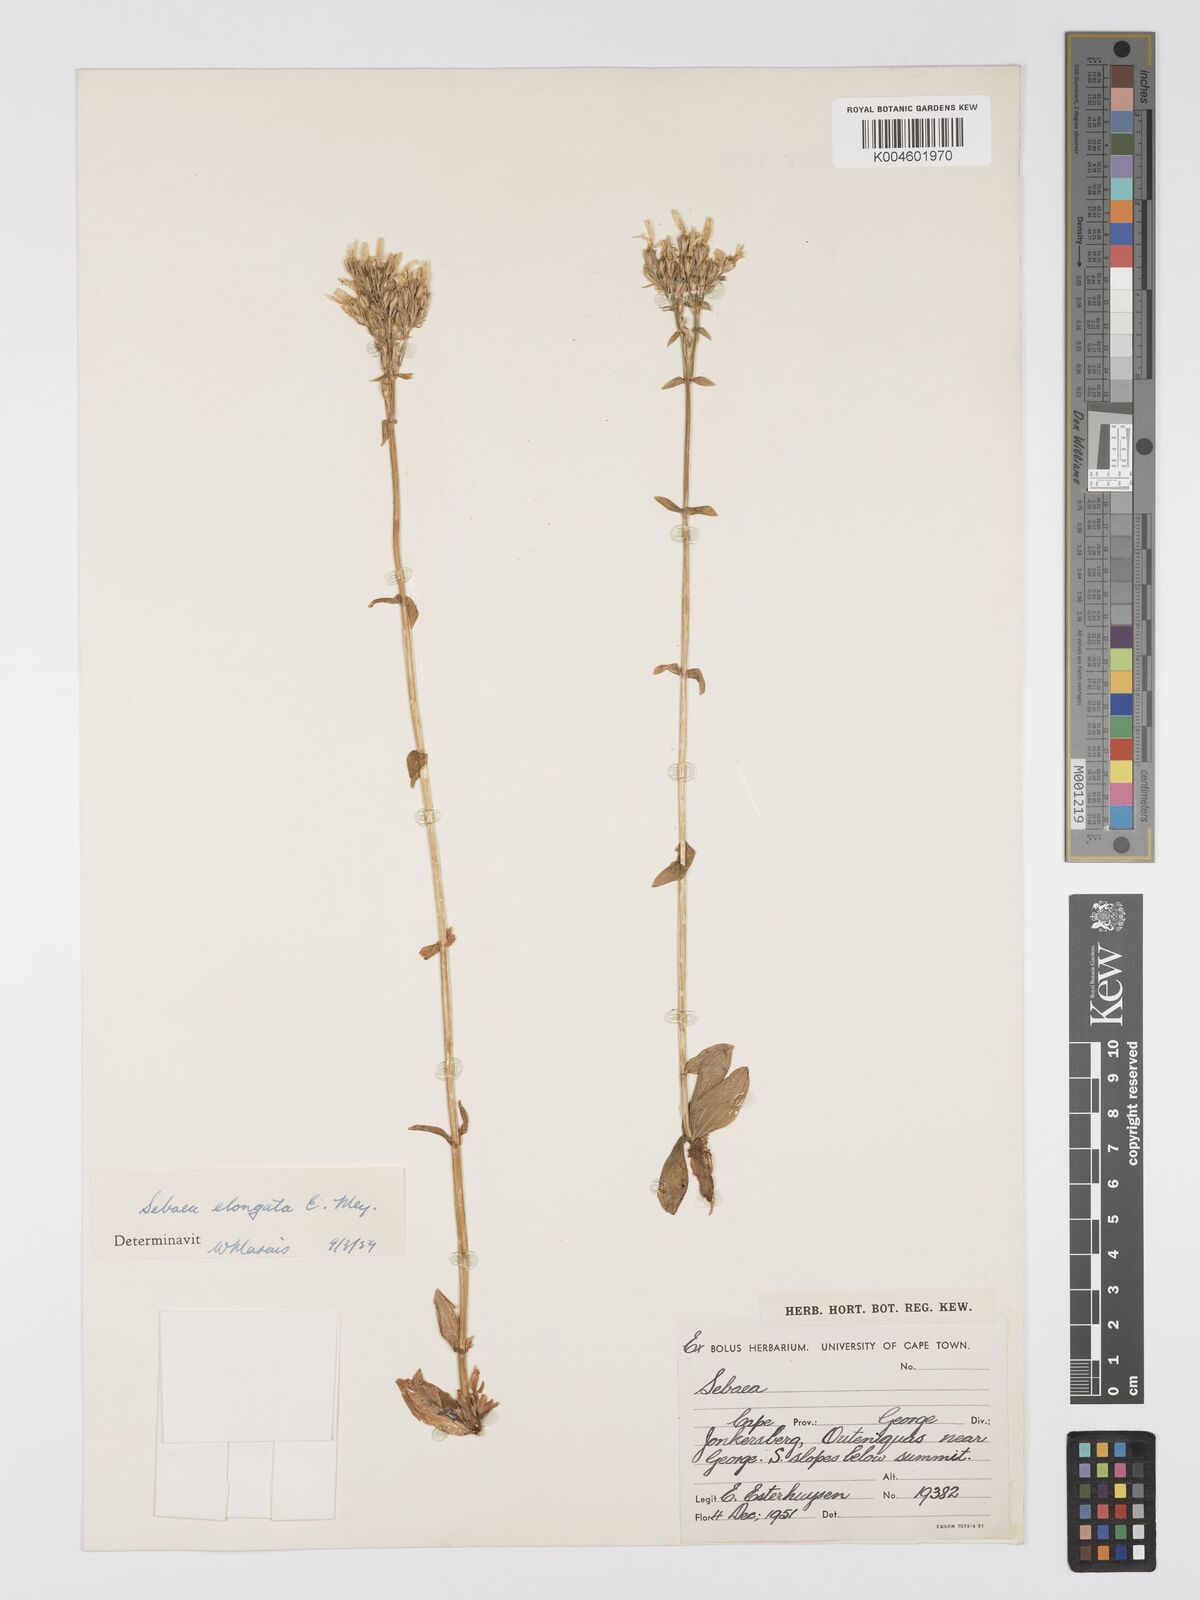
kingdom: Plantae
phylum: Tracheophyta
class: Magnoliopsida
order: Gentianales
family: Gentianaceae
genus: Sebaea
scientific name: Sebaea elongata
